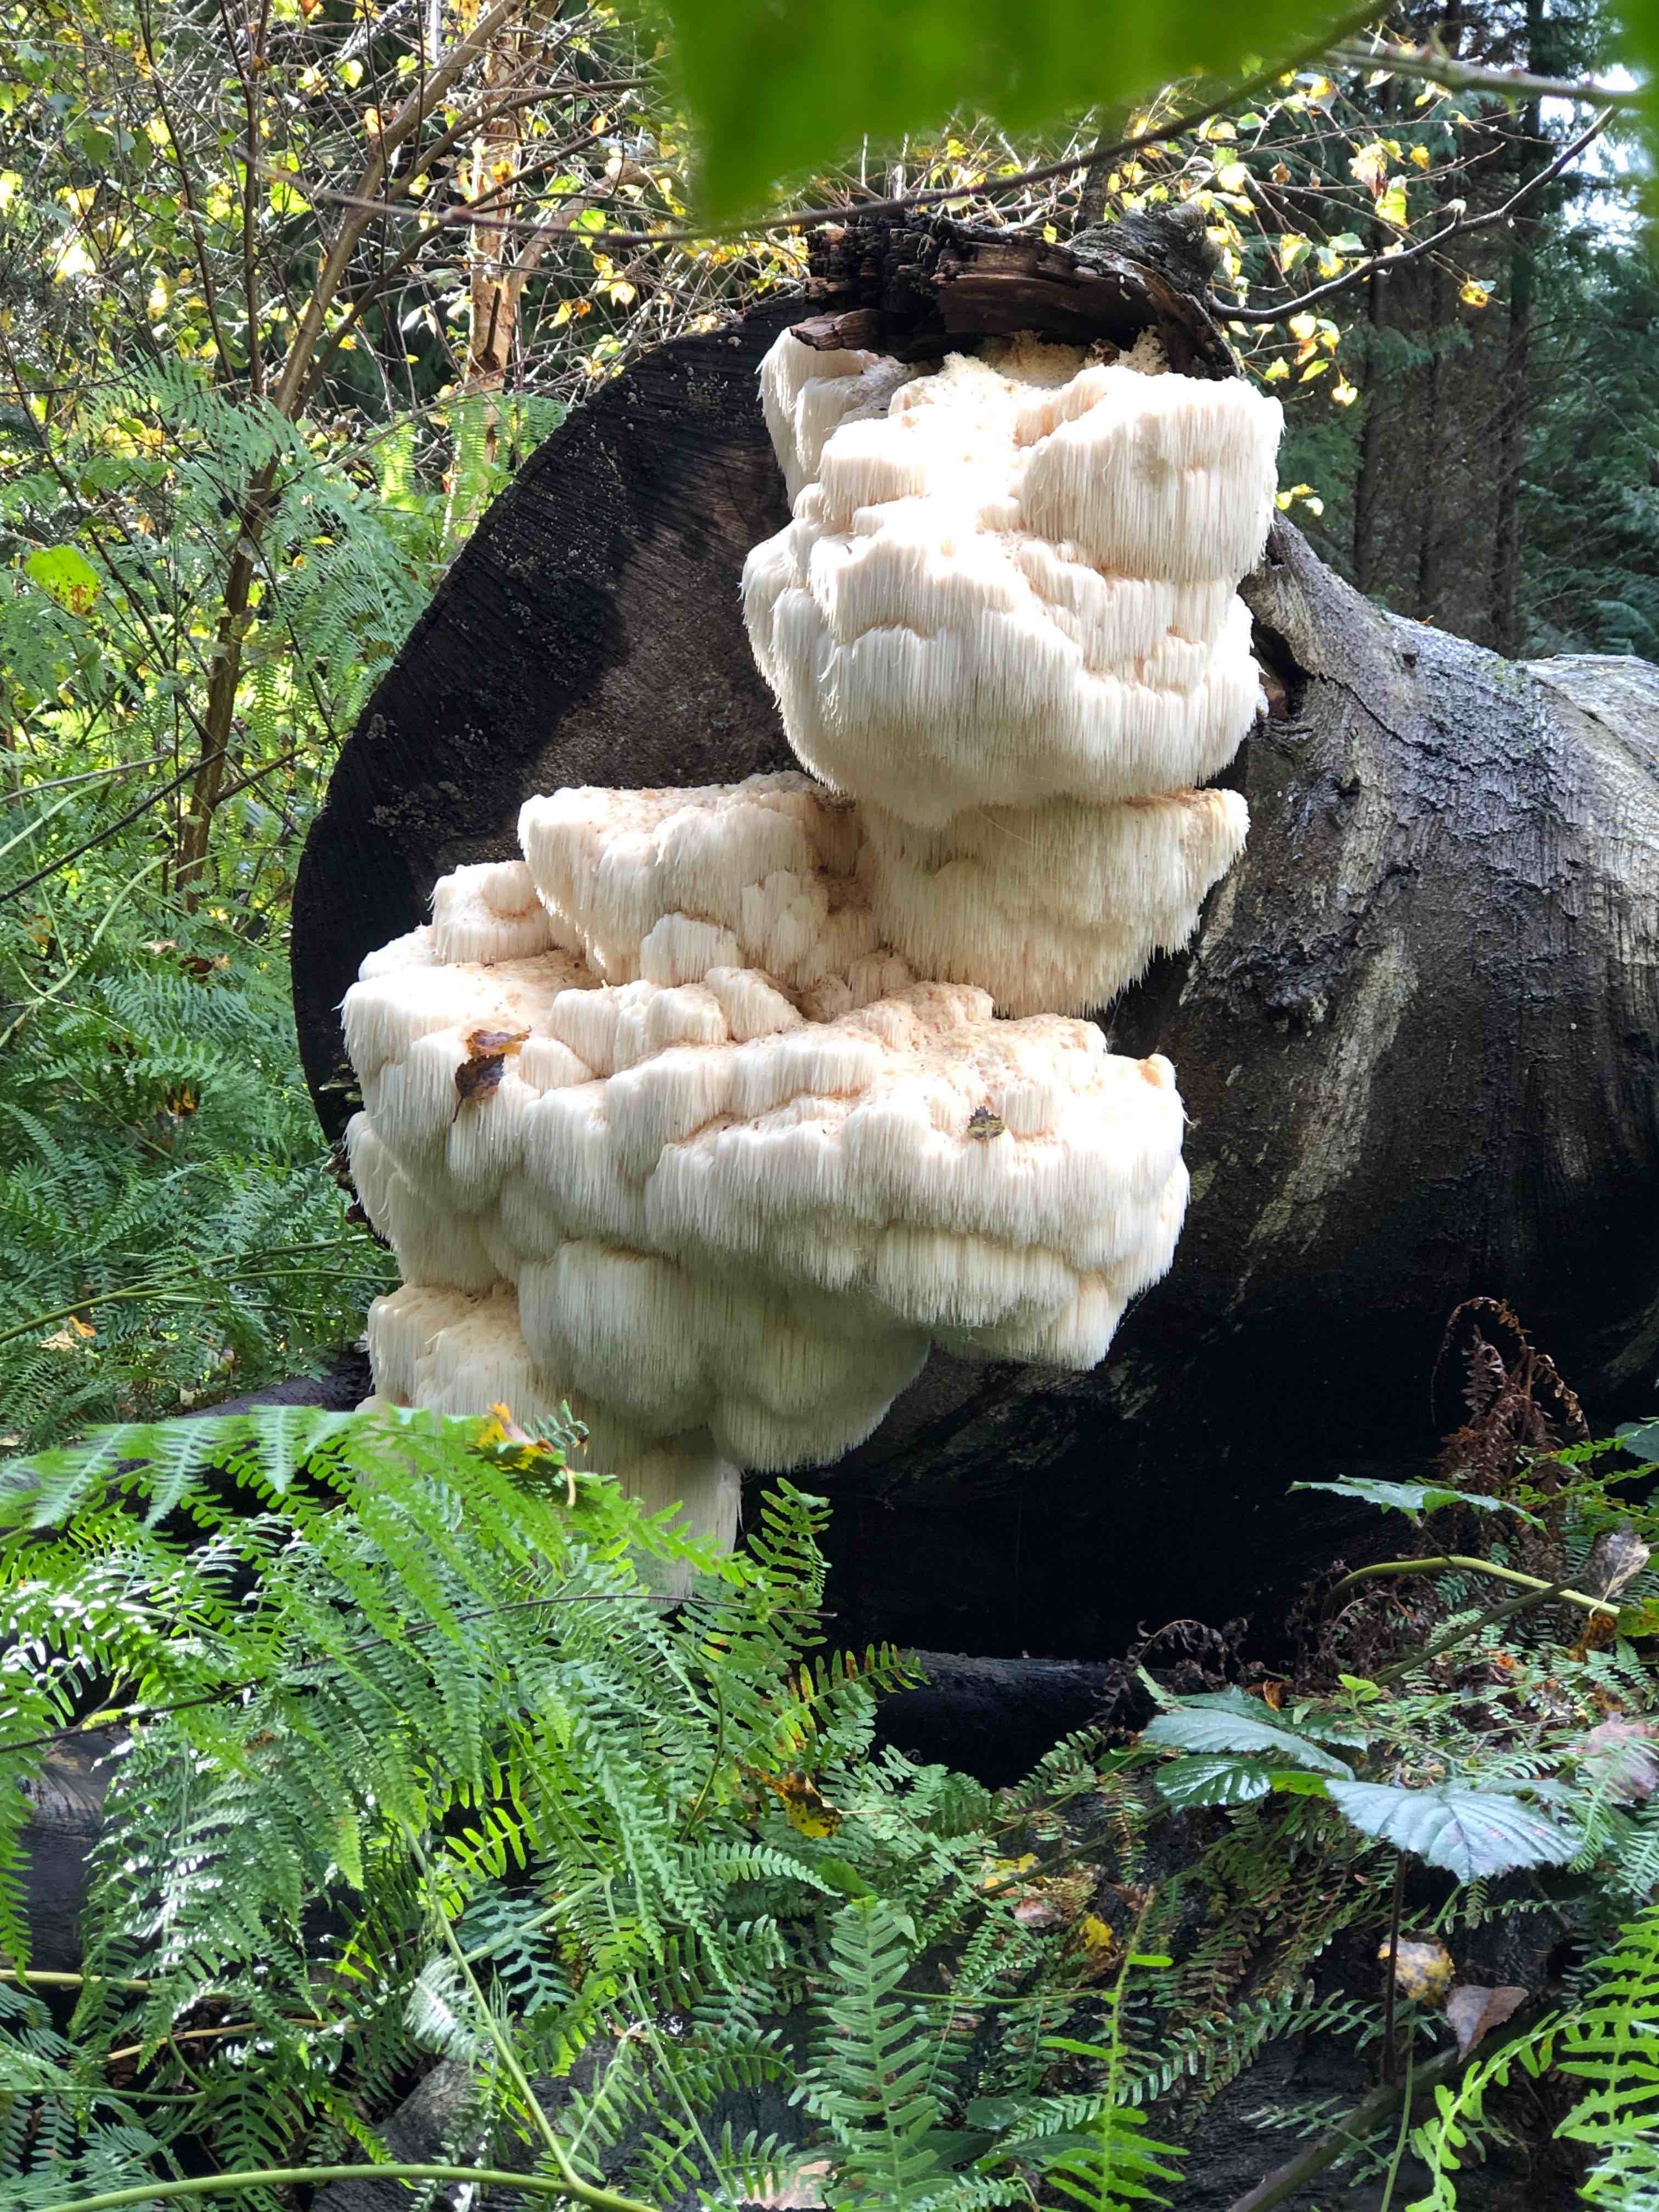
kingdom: Fungi
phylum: Basidiomycota
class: Agaricomycetes
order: Russulales
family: Hericiaceae
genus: Hericium
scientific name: Hericium erinaceus
